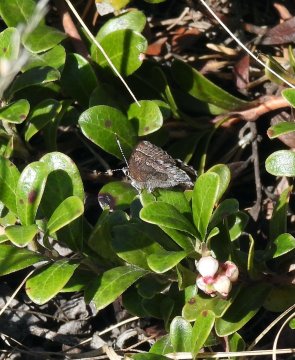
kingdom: Animalia
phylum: Arthropoda
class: Insecta
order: Lepidoptera
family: Lycaenidae
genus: Callophrys
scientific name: Callophrys polios
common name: Hoary Elfin
